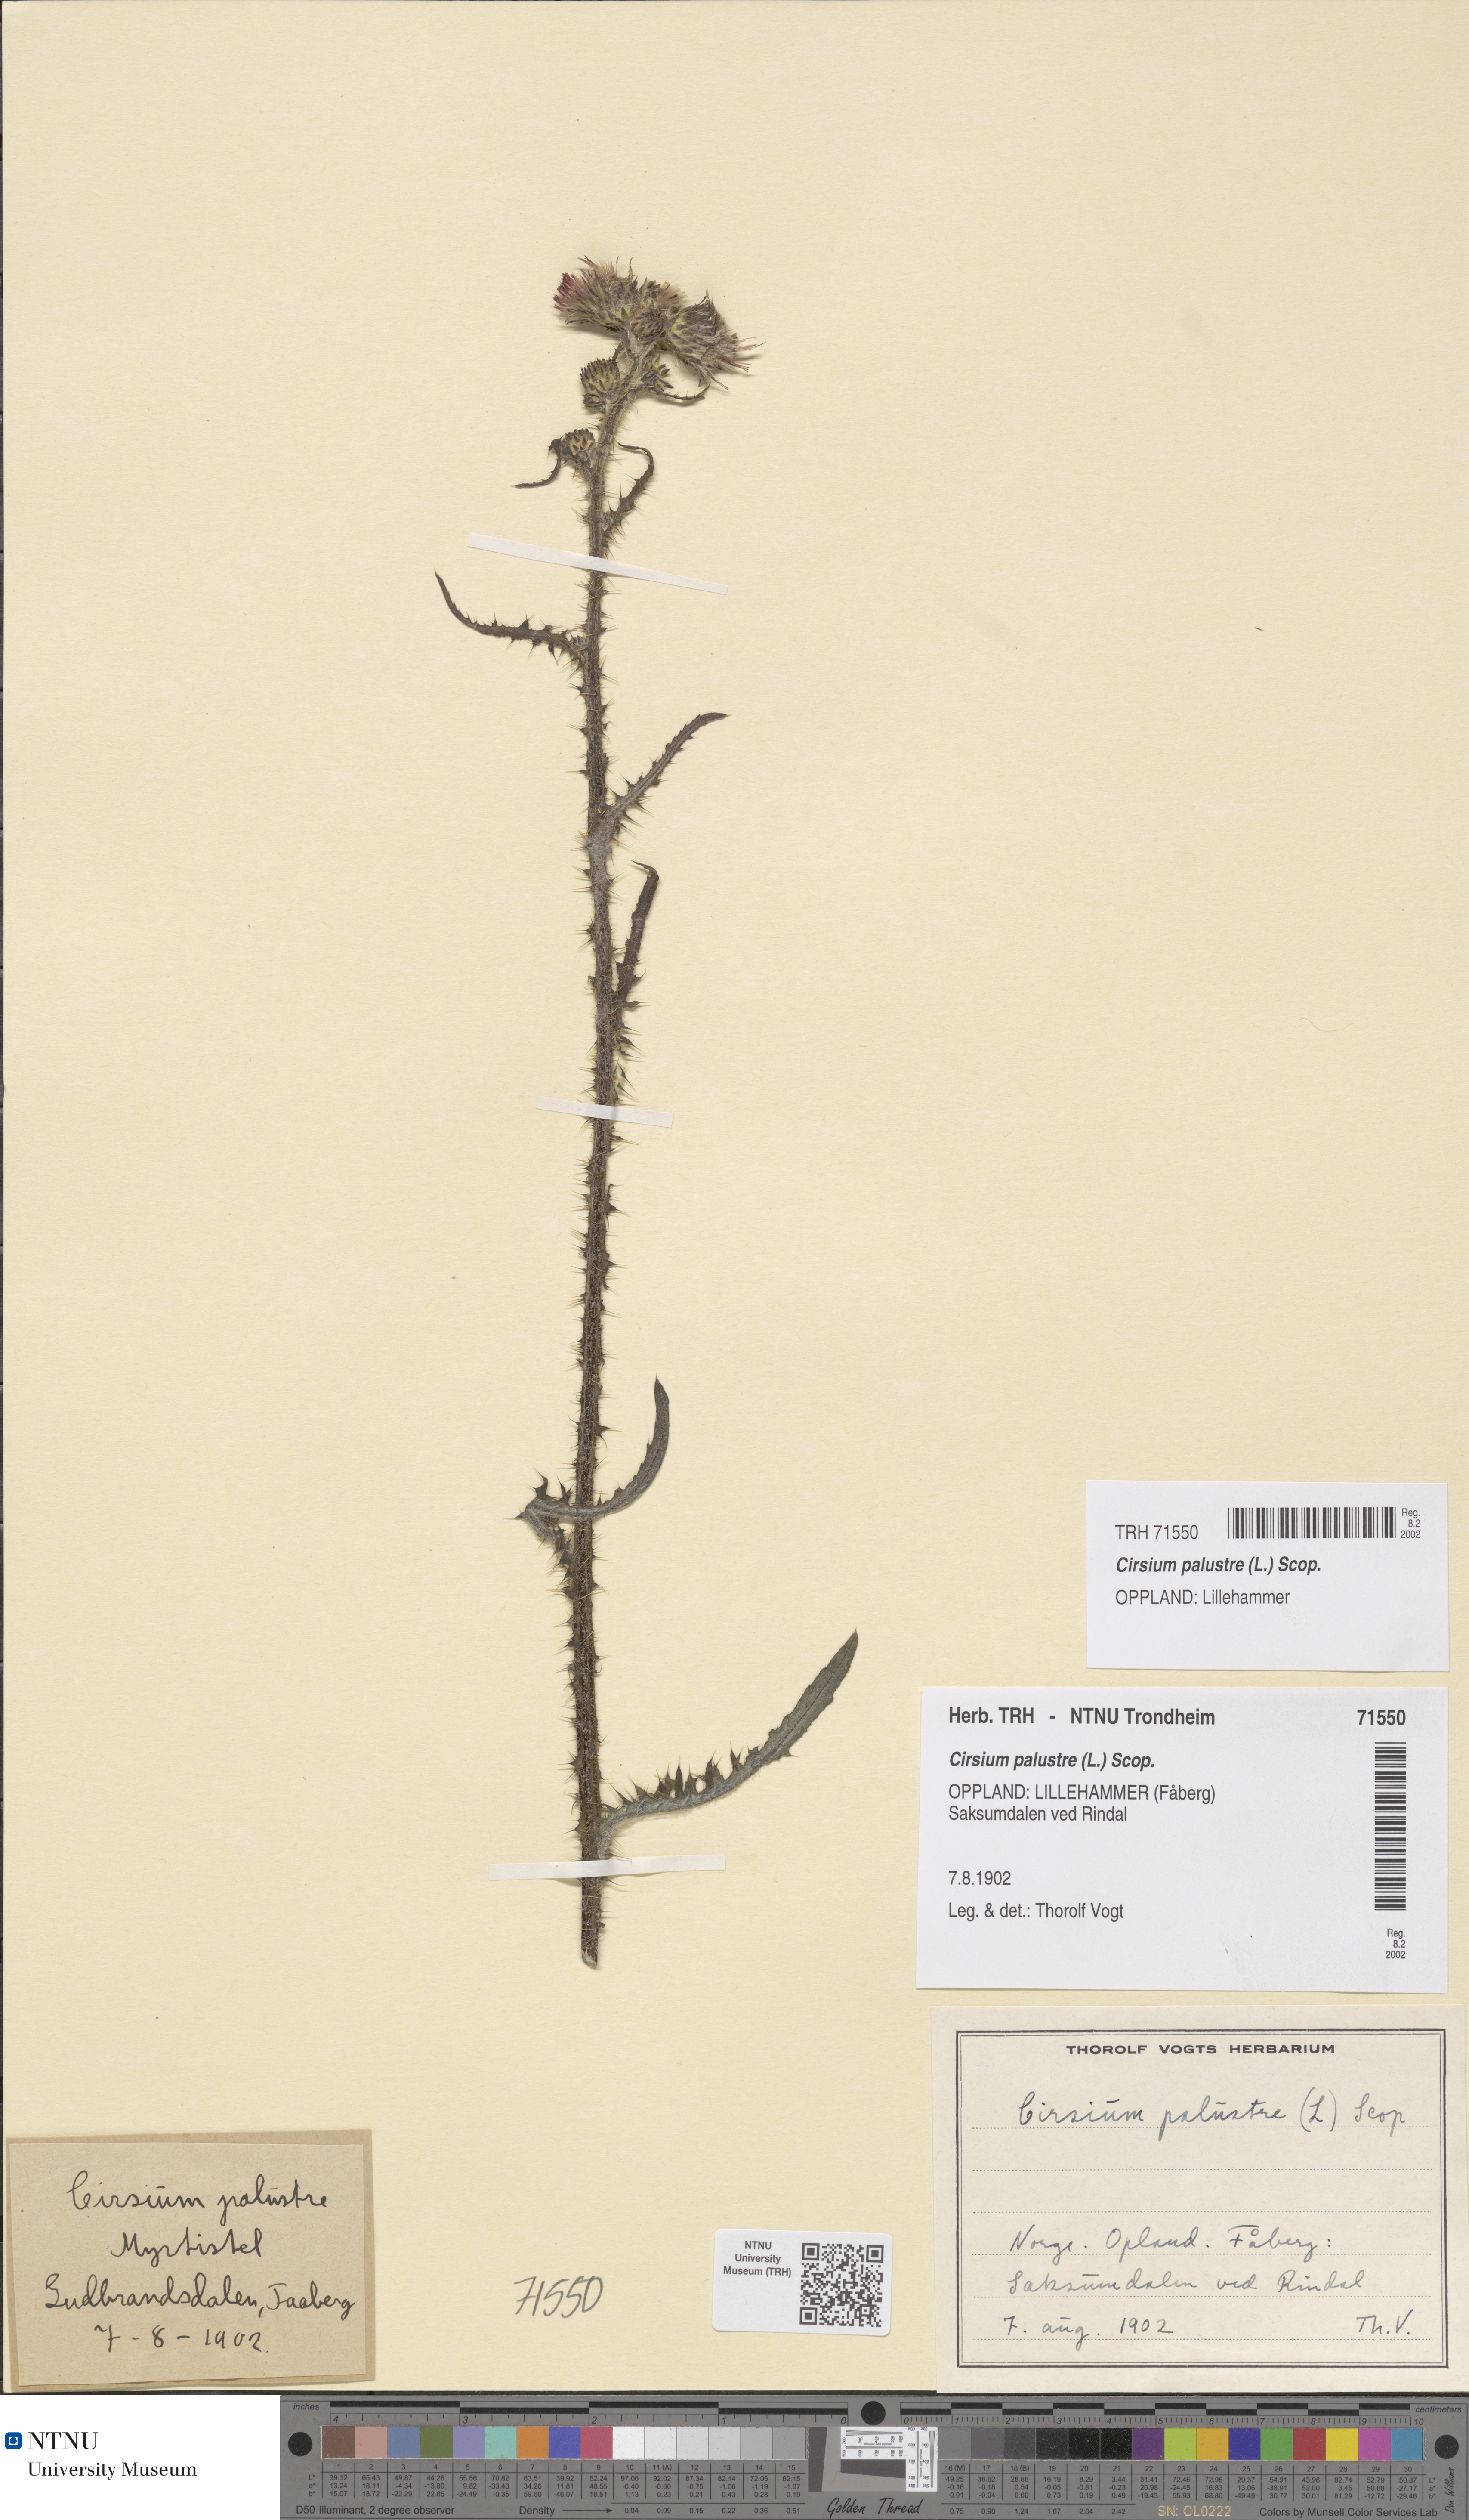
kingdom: Plantae
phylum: Tracheophyta
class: Magnoliopsida
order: Asterales
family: Asteraceae
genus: Cirsium
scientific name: Cirsium palustre
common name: Marsh thistle
